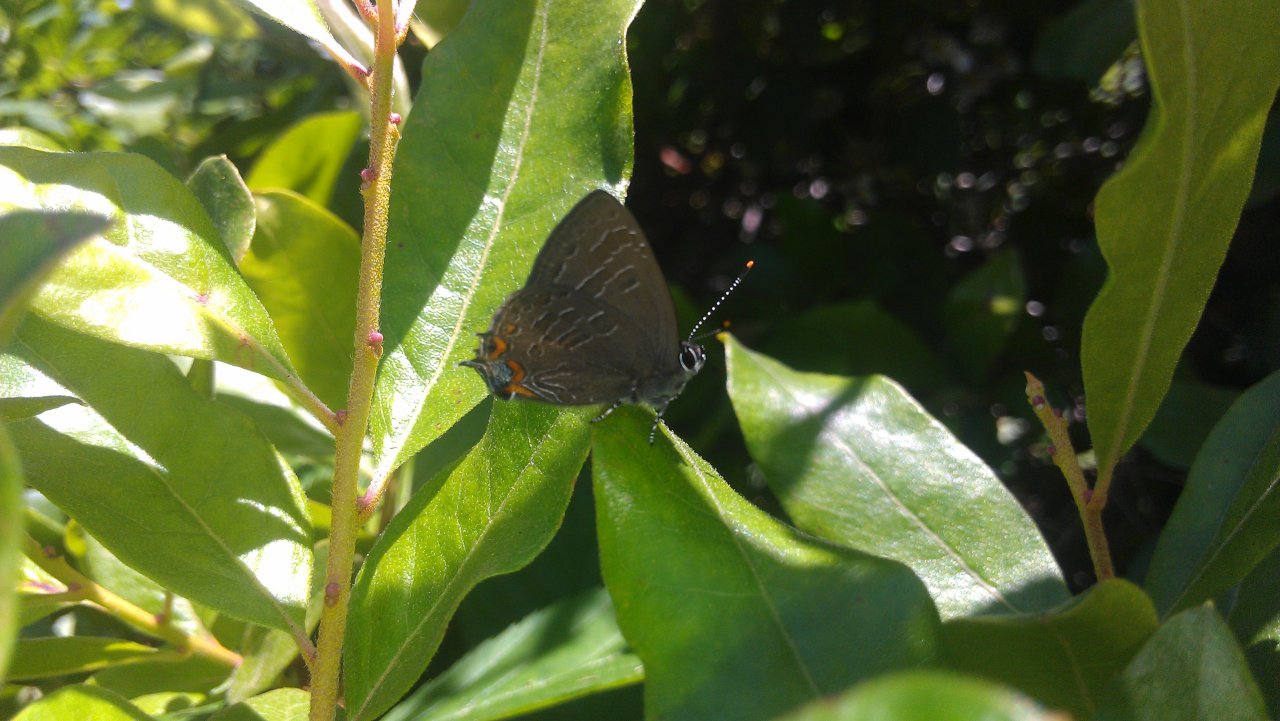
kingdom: Animalia
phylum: Arthropoda
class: Insecta
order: Lepidoptera
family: Lycaenidae
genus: Satyrium
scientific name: Satyrium liparops
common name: Striped Hairstreak
